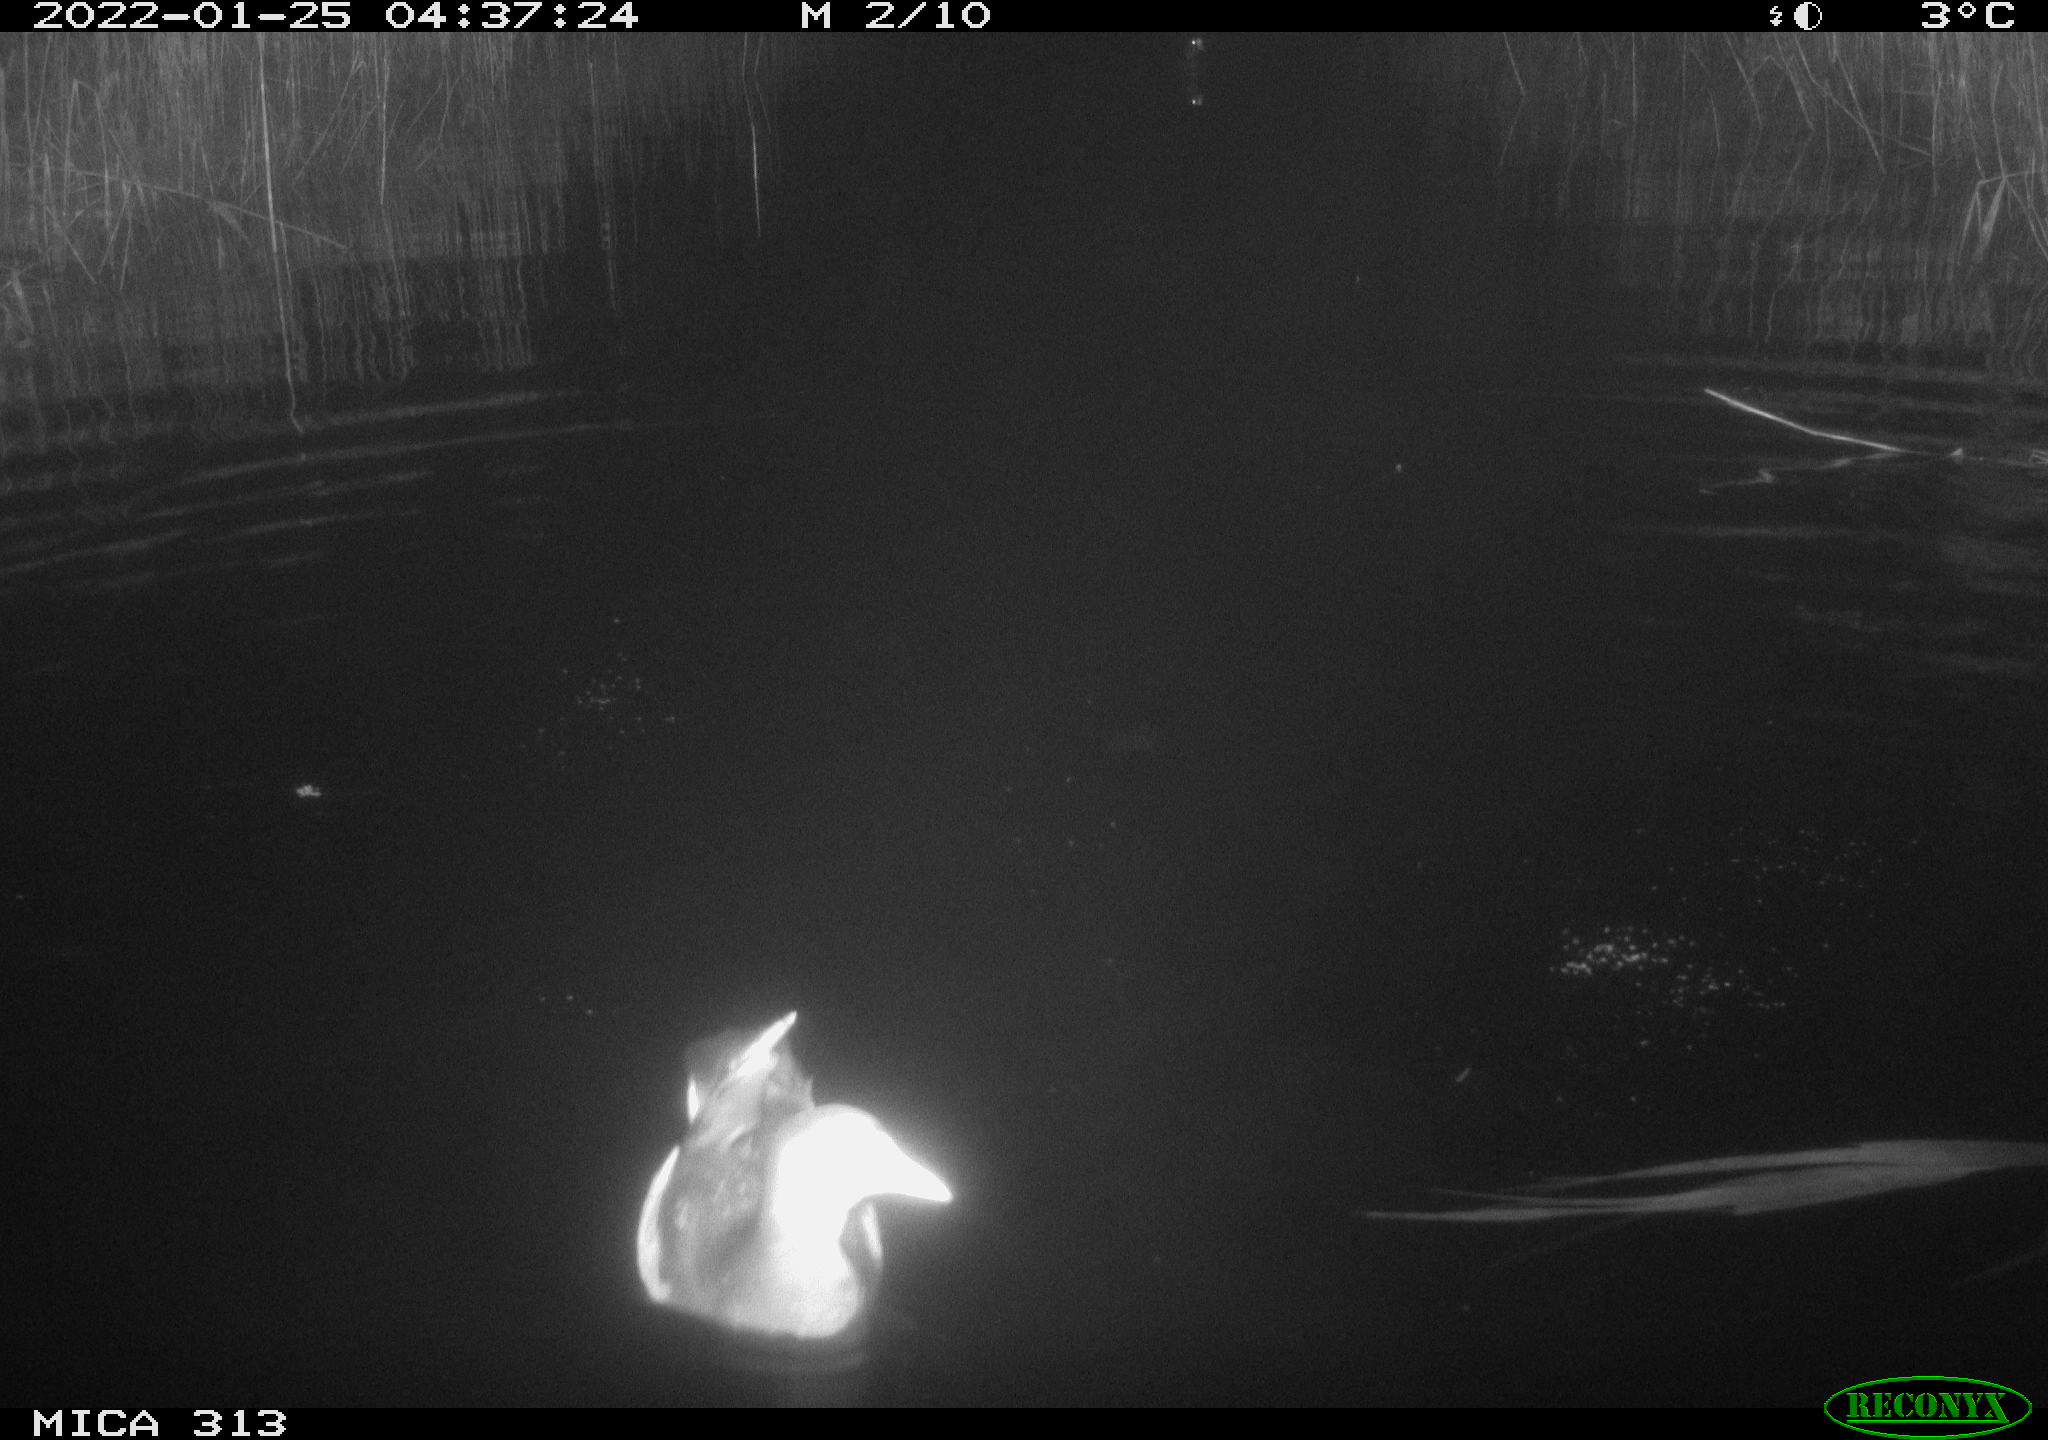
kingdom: Animalia
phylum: Chordata
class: Aves
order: Anseriformes
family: Anatidae
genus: Anas
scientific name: Anas
